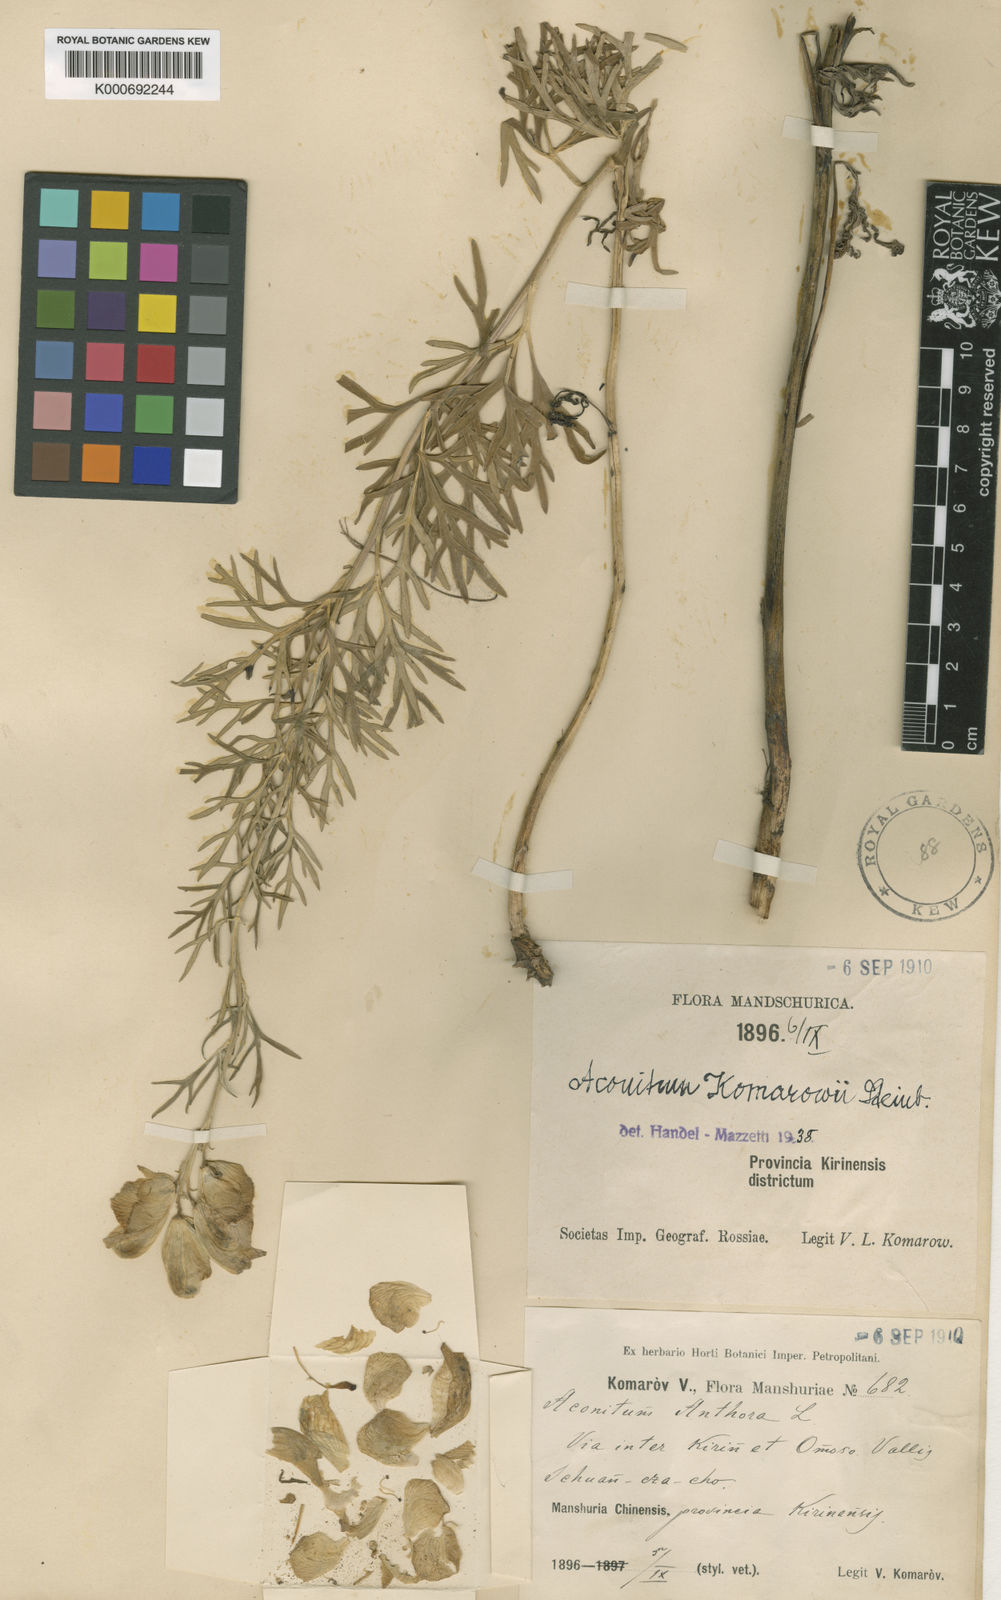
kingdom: Plantae
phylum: Tracheophyta
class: Magnoliopsida
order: Ranunculales
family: Ranunculaceae
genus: Aconitum
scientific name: Aconitum
